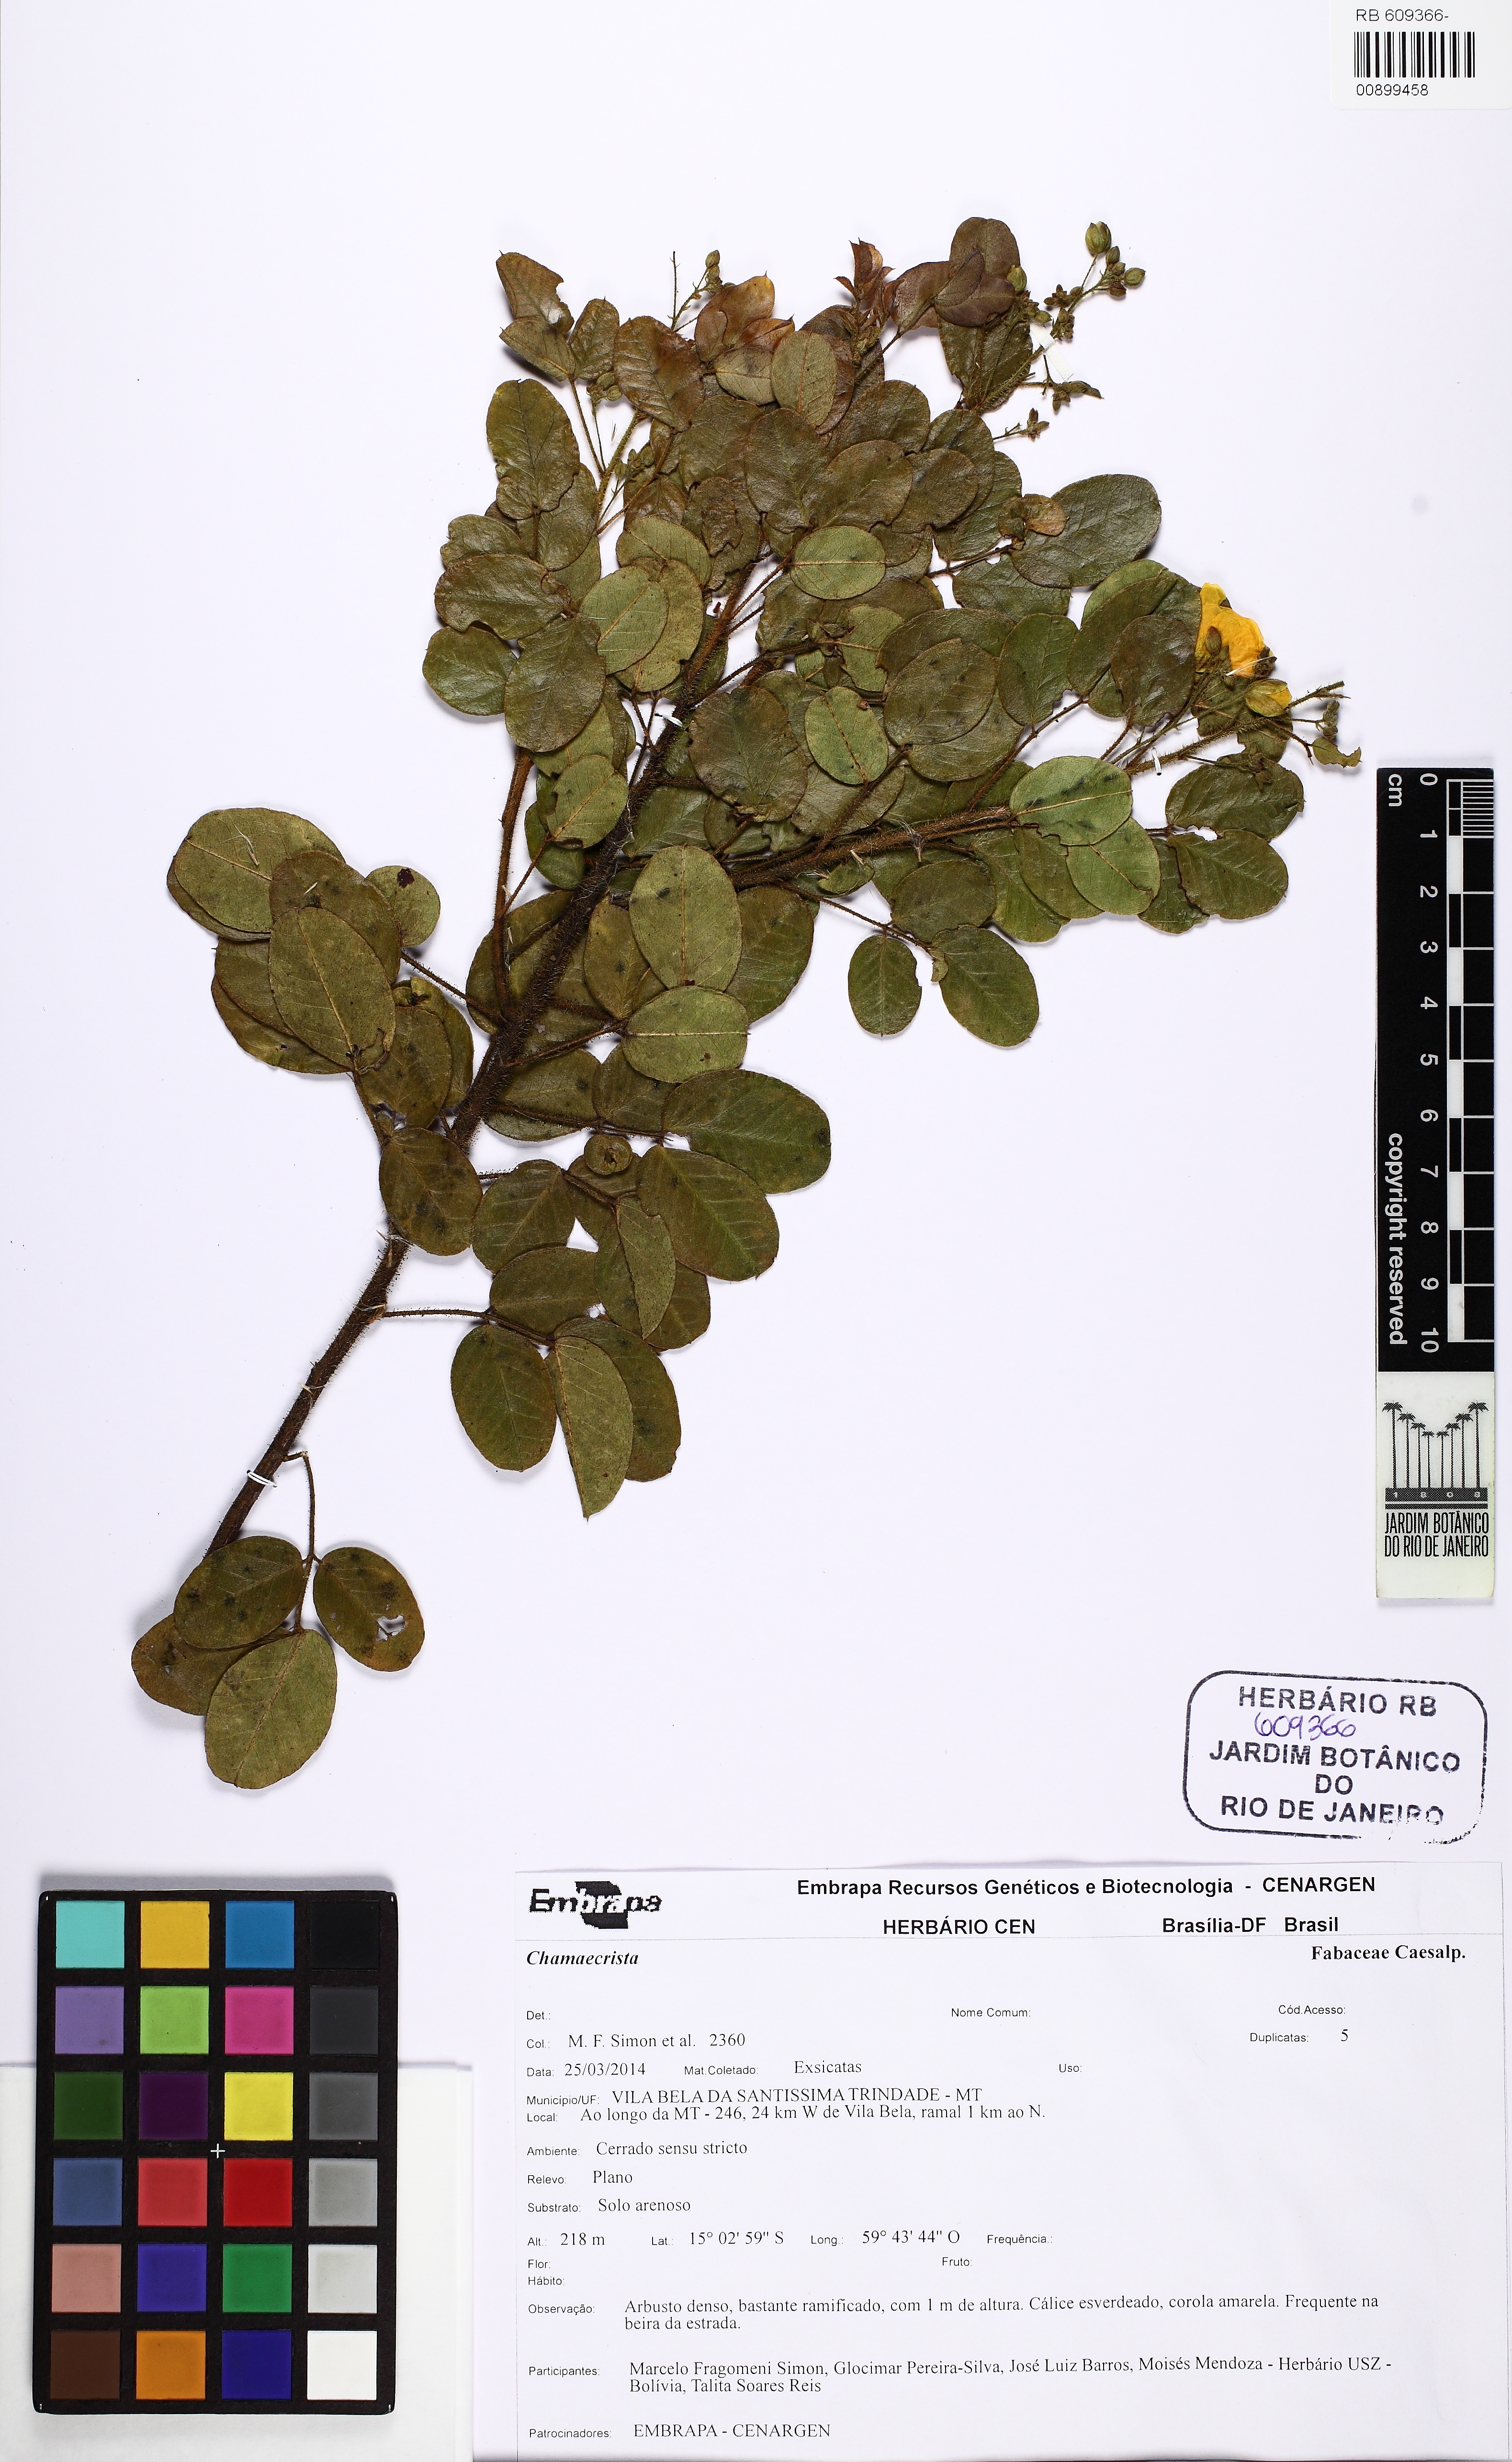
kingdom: Plantae
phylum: Tracheophyta
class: Magnoliopsida
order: Fabales
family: Fabaceae
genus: Chamaecrista
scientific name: Chamaecrista
